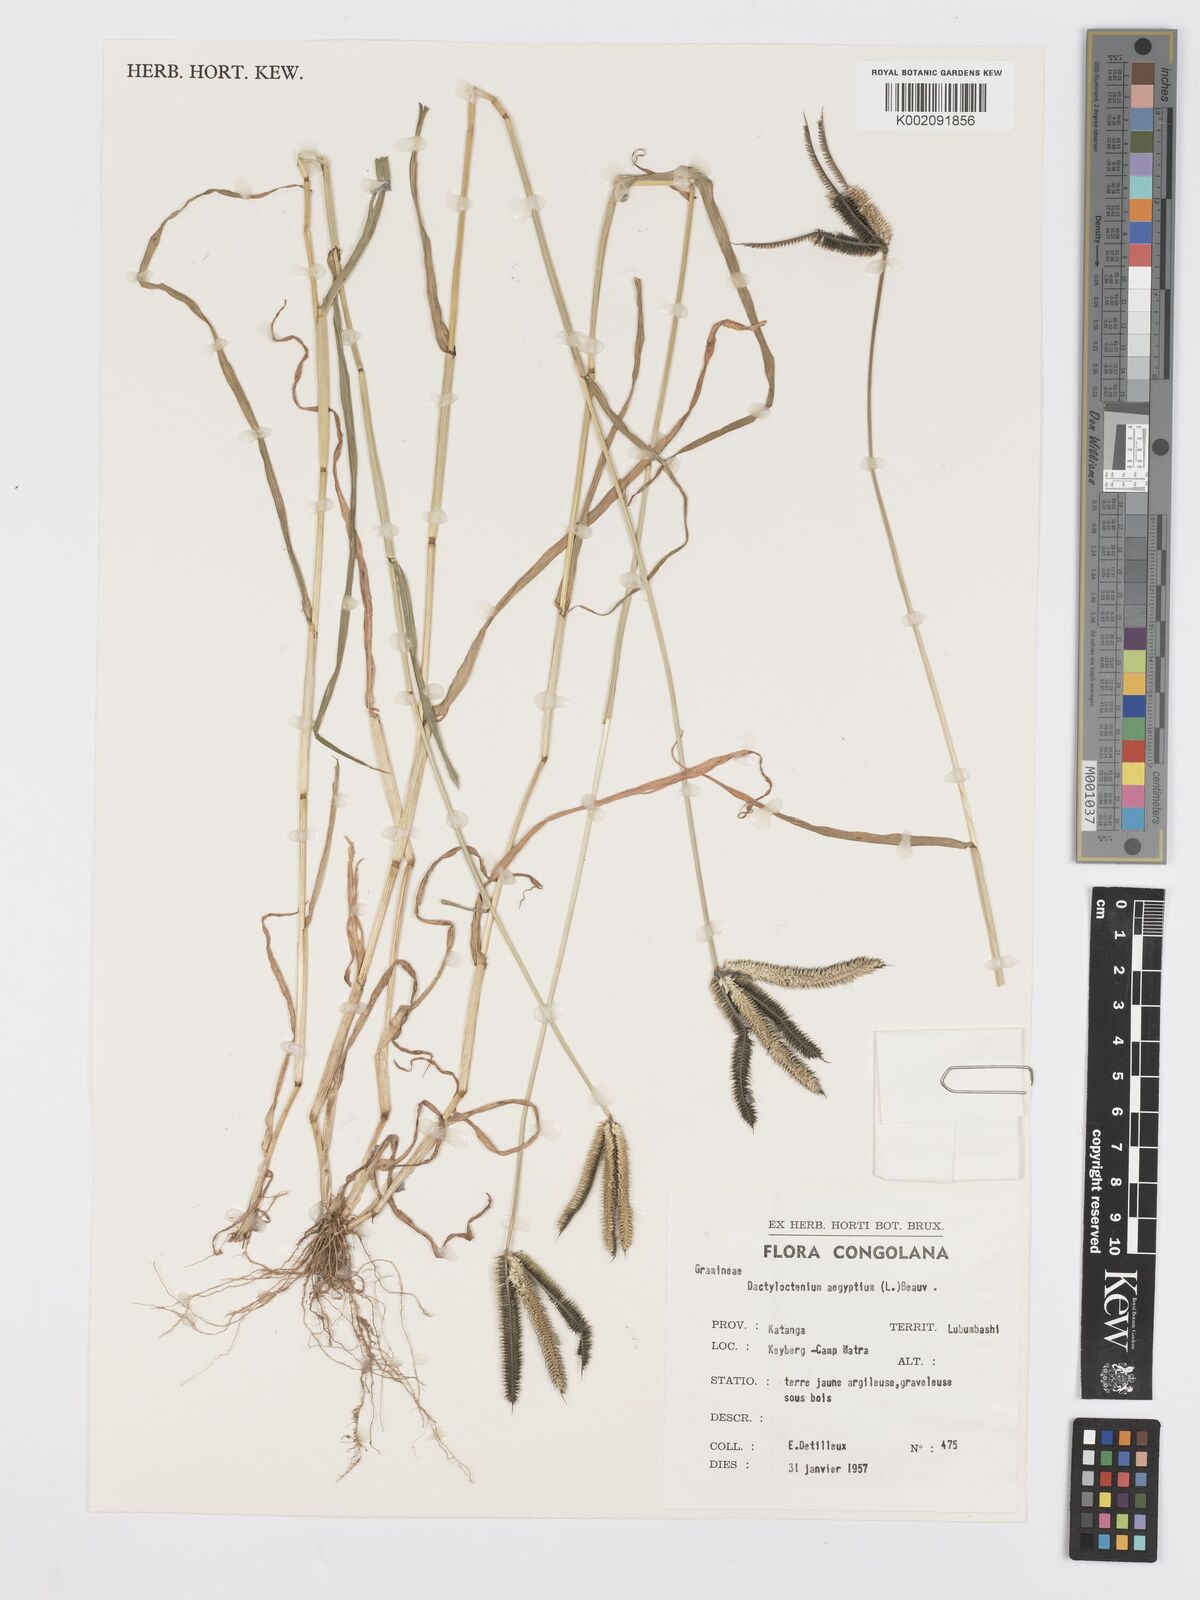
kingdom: Plantae
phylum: Tracheophyta
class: Liliopsida
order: Poales
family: Poaceae
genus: Dactyloctenium
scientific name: Dactyloctenium aegyptium
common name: Egyptian grass
